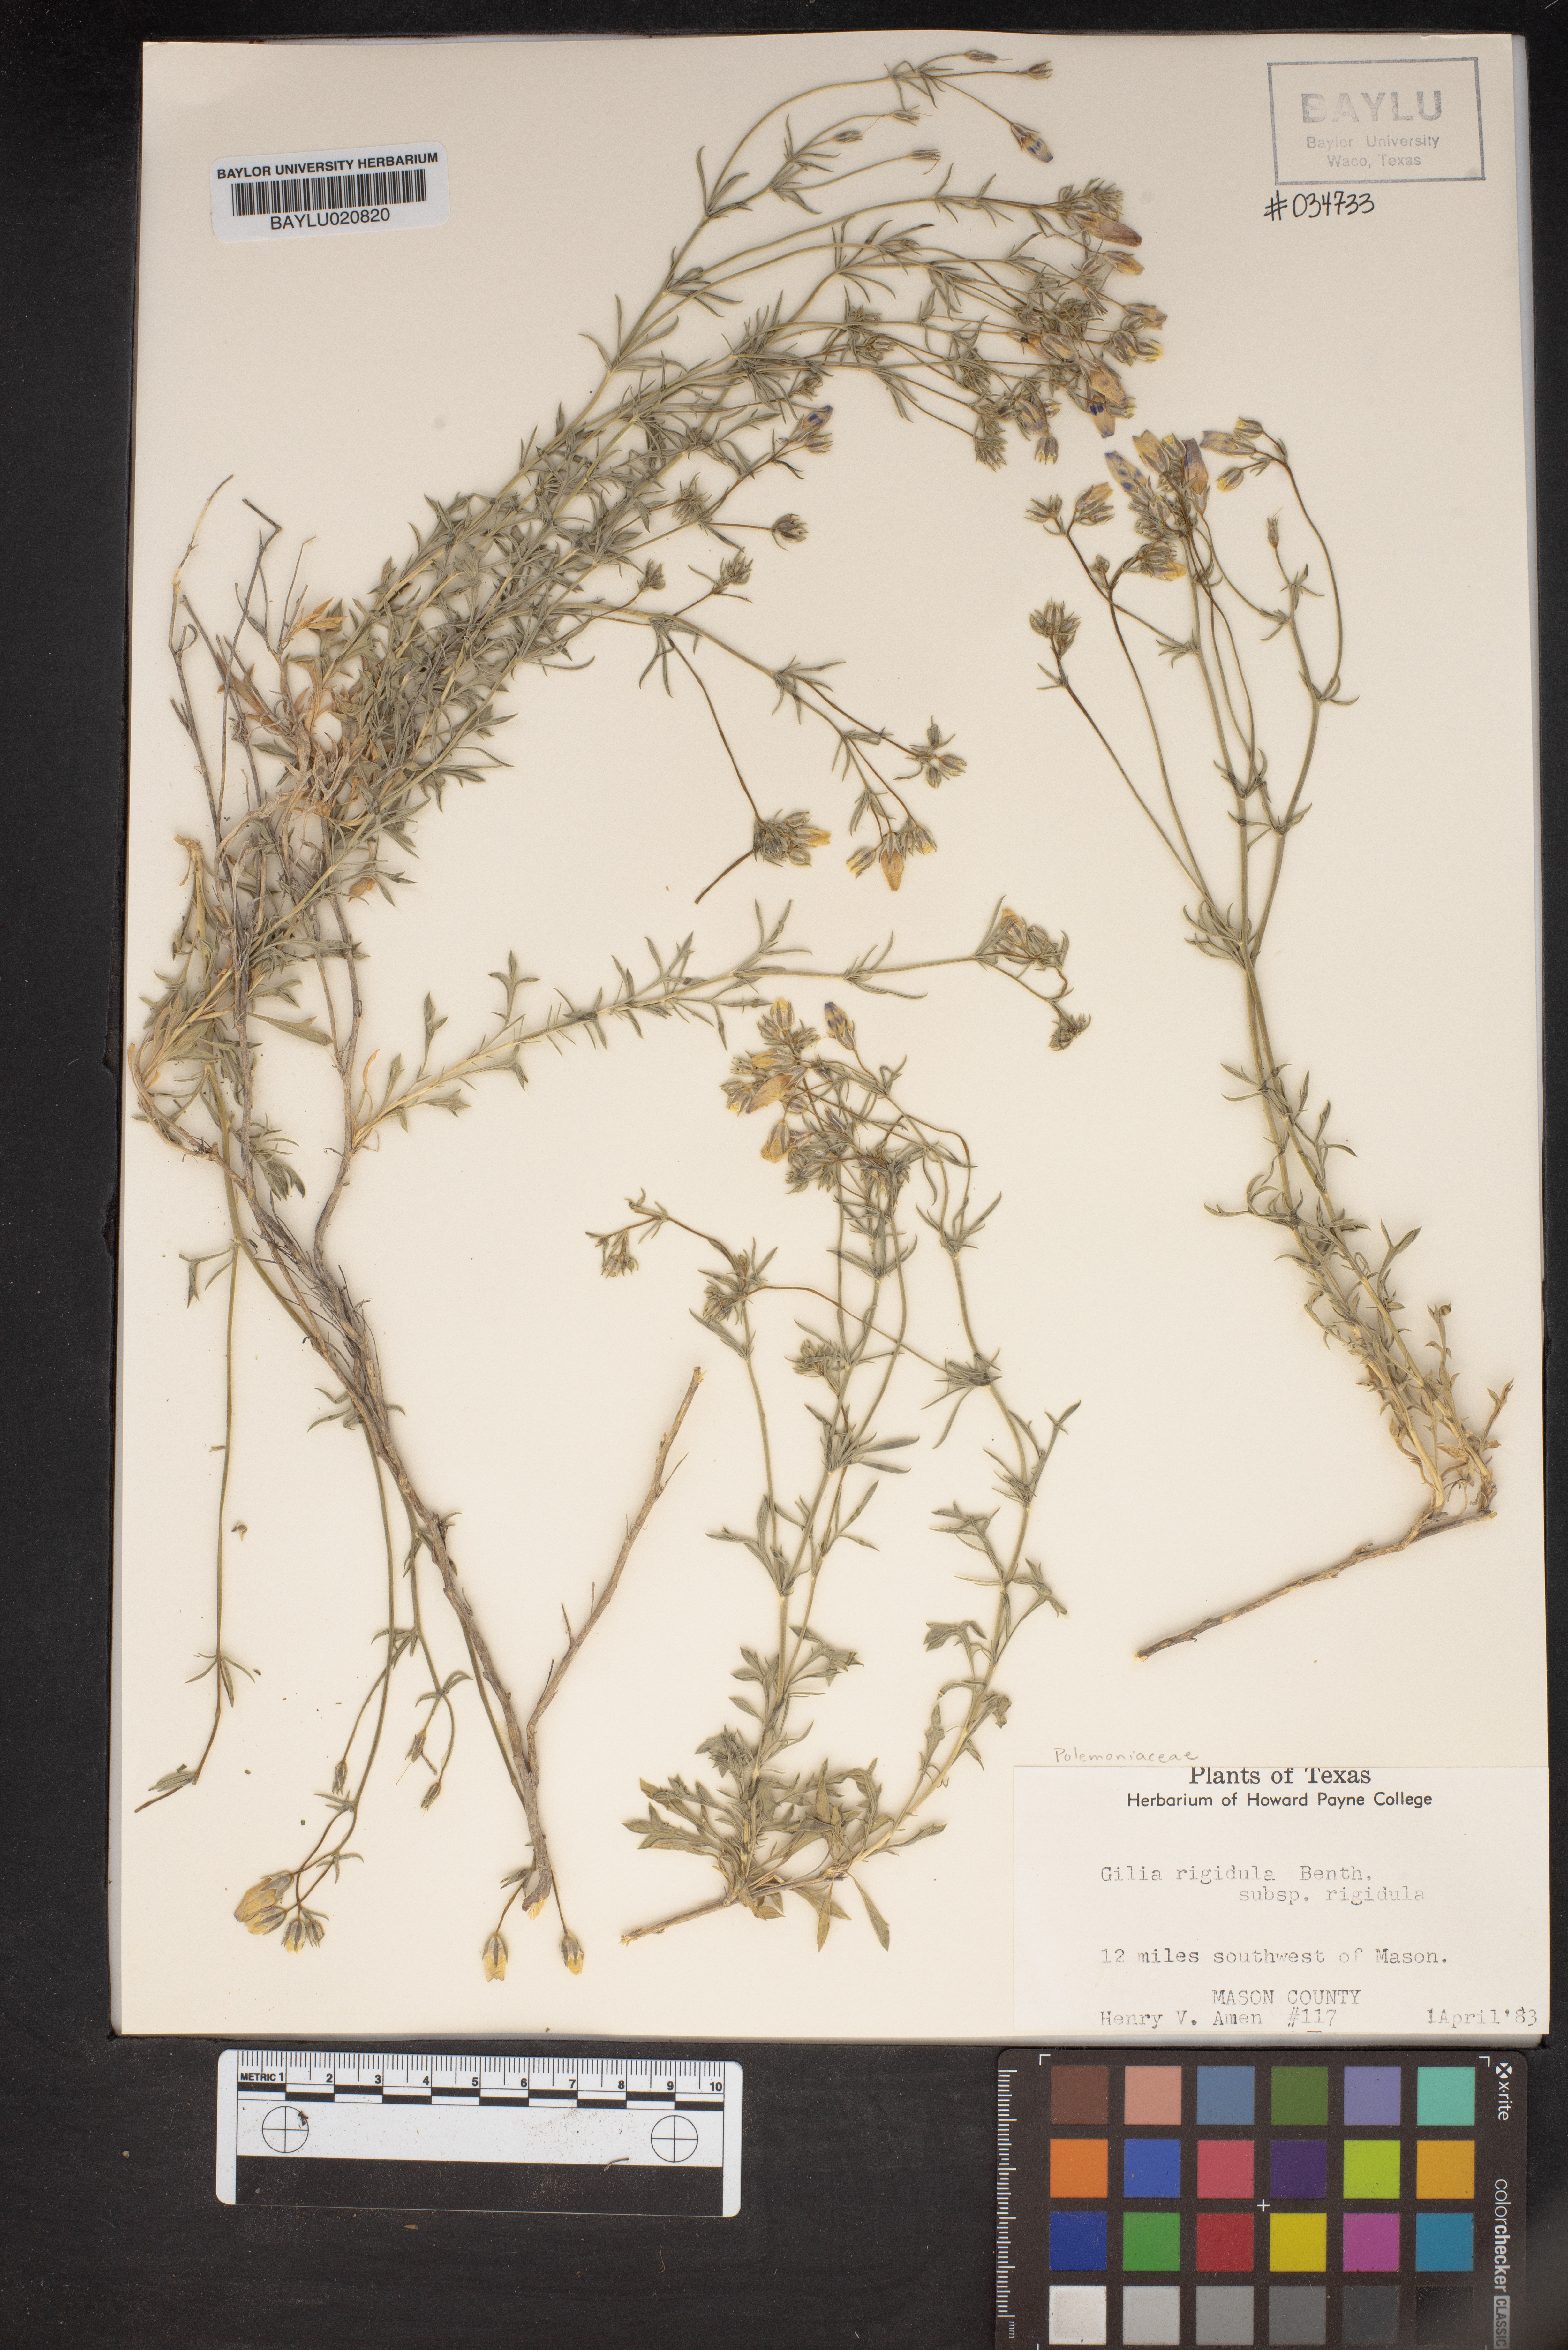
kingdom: Plantae
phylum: Tracheophyta
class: Magnoliopsida
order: Ericales
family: Polemoniaceae
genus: Giliastrum
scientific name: Giliastrum rigidulum
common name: Bluebowls
